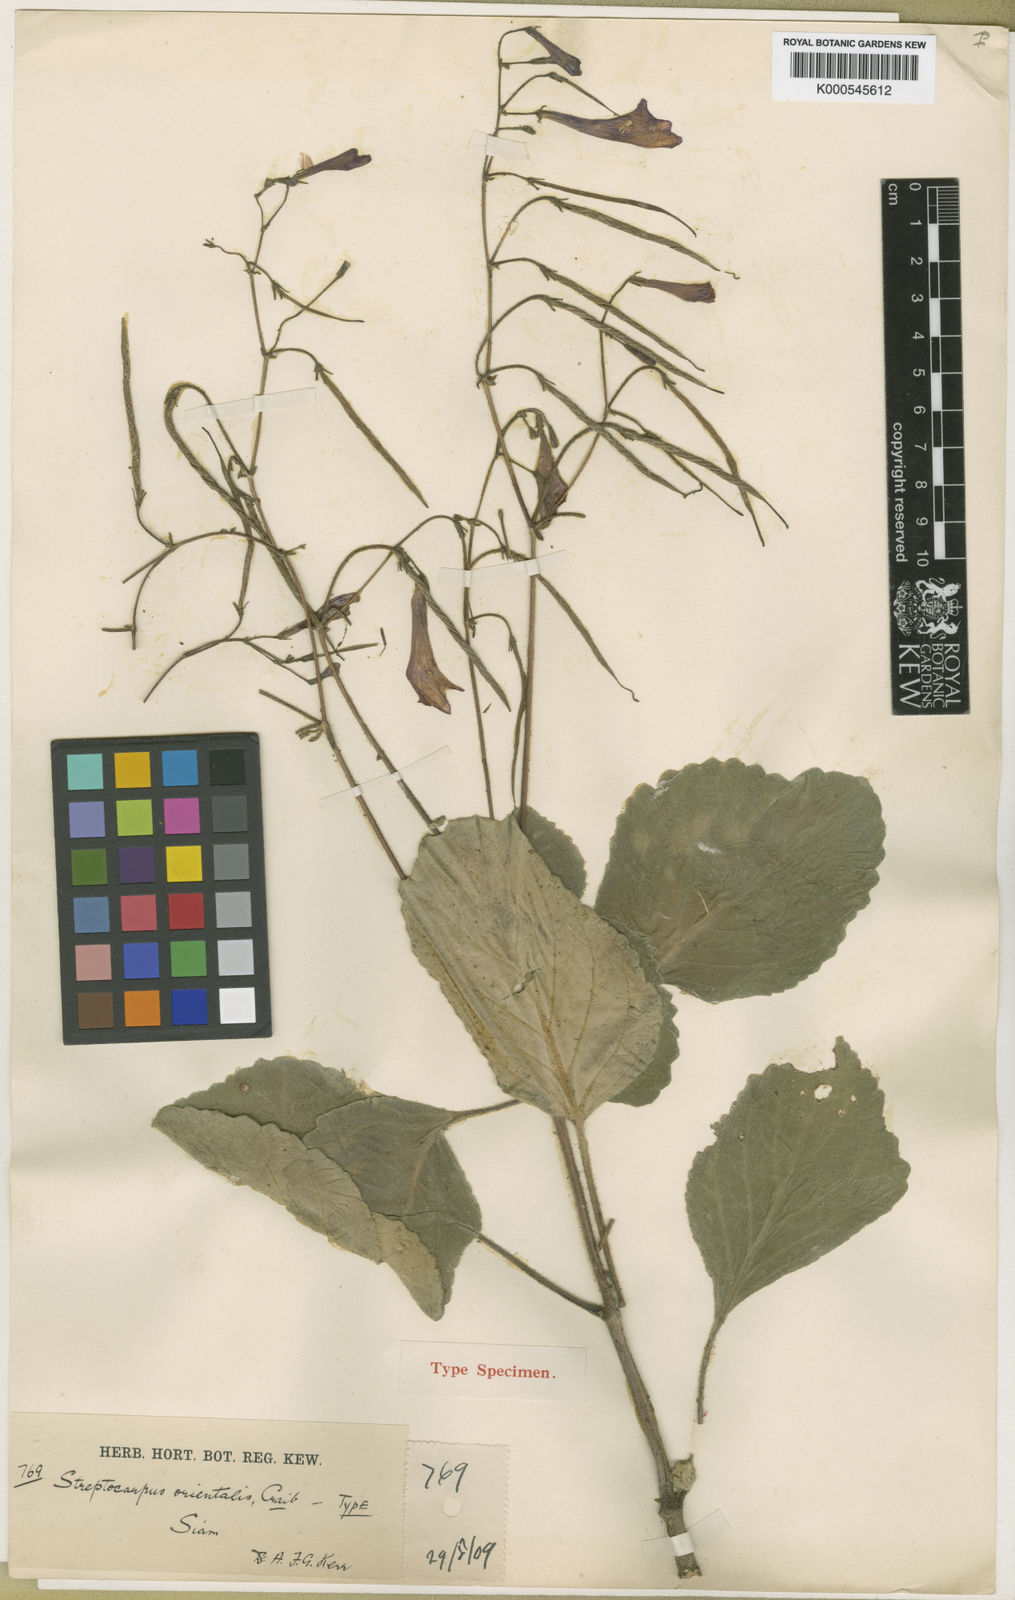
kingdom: Plantae
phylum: Tracheophyta
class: Magnoliopsida
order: Lamiales
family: Gesneriaceae
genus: Damrongia
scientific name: Damrongia orientalis
